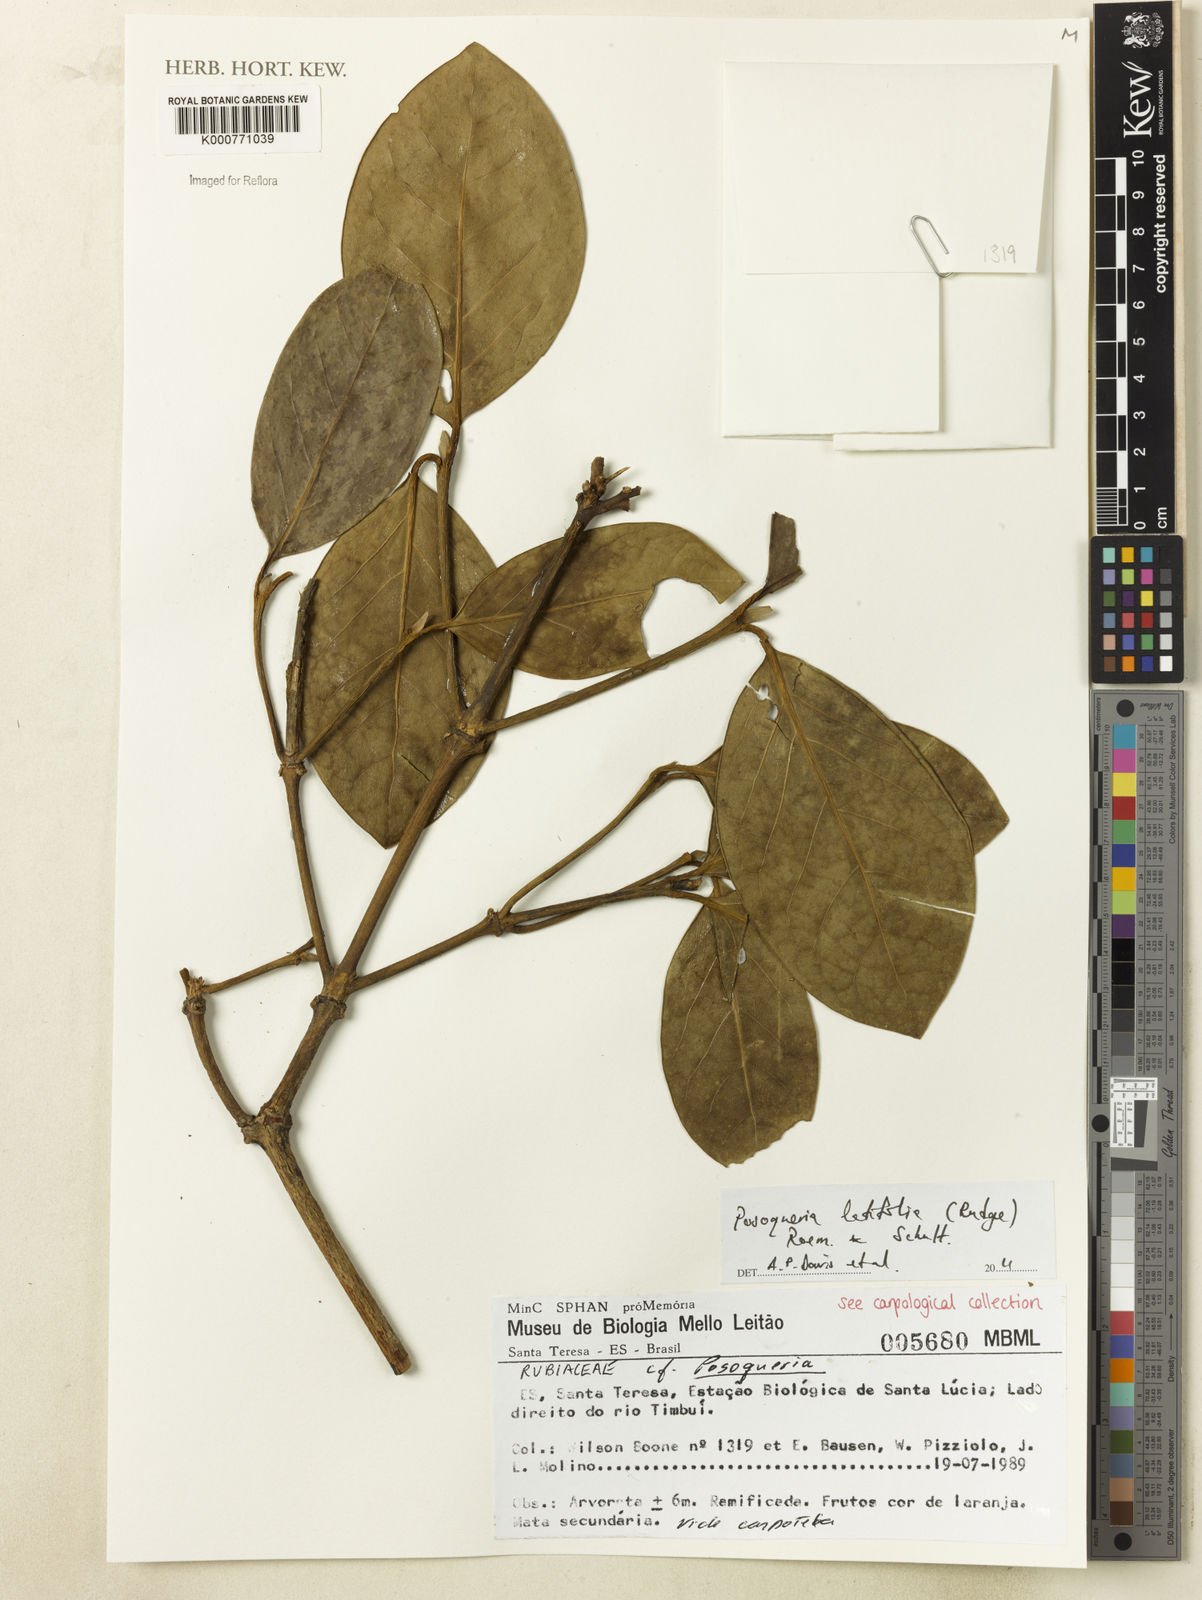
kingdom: Plantae
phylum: Tracheophyta
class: Magnoliopsida
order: Gentianales
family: Rubiaceae
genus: Posoqueria
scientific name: Posoqueria latifolia
